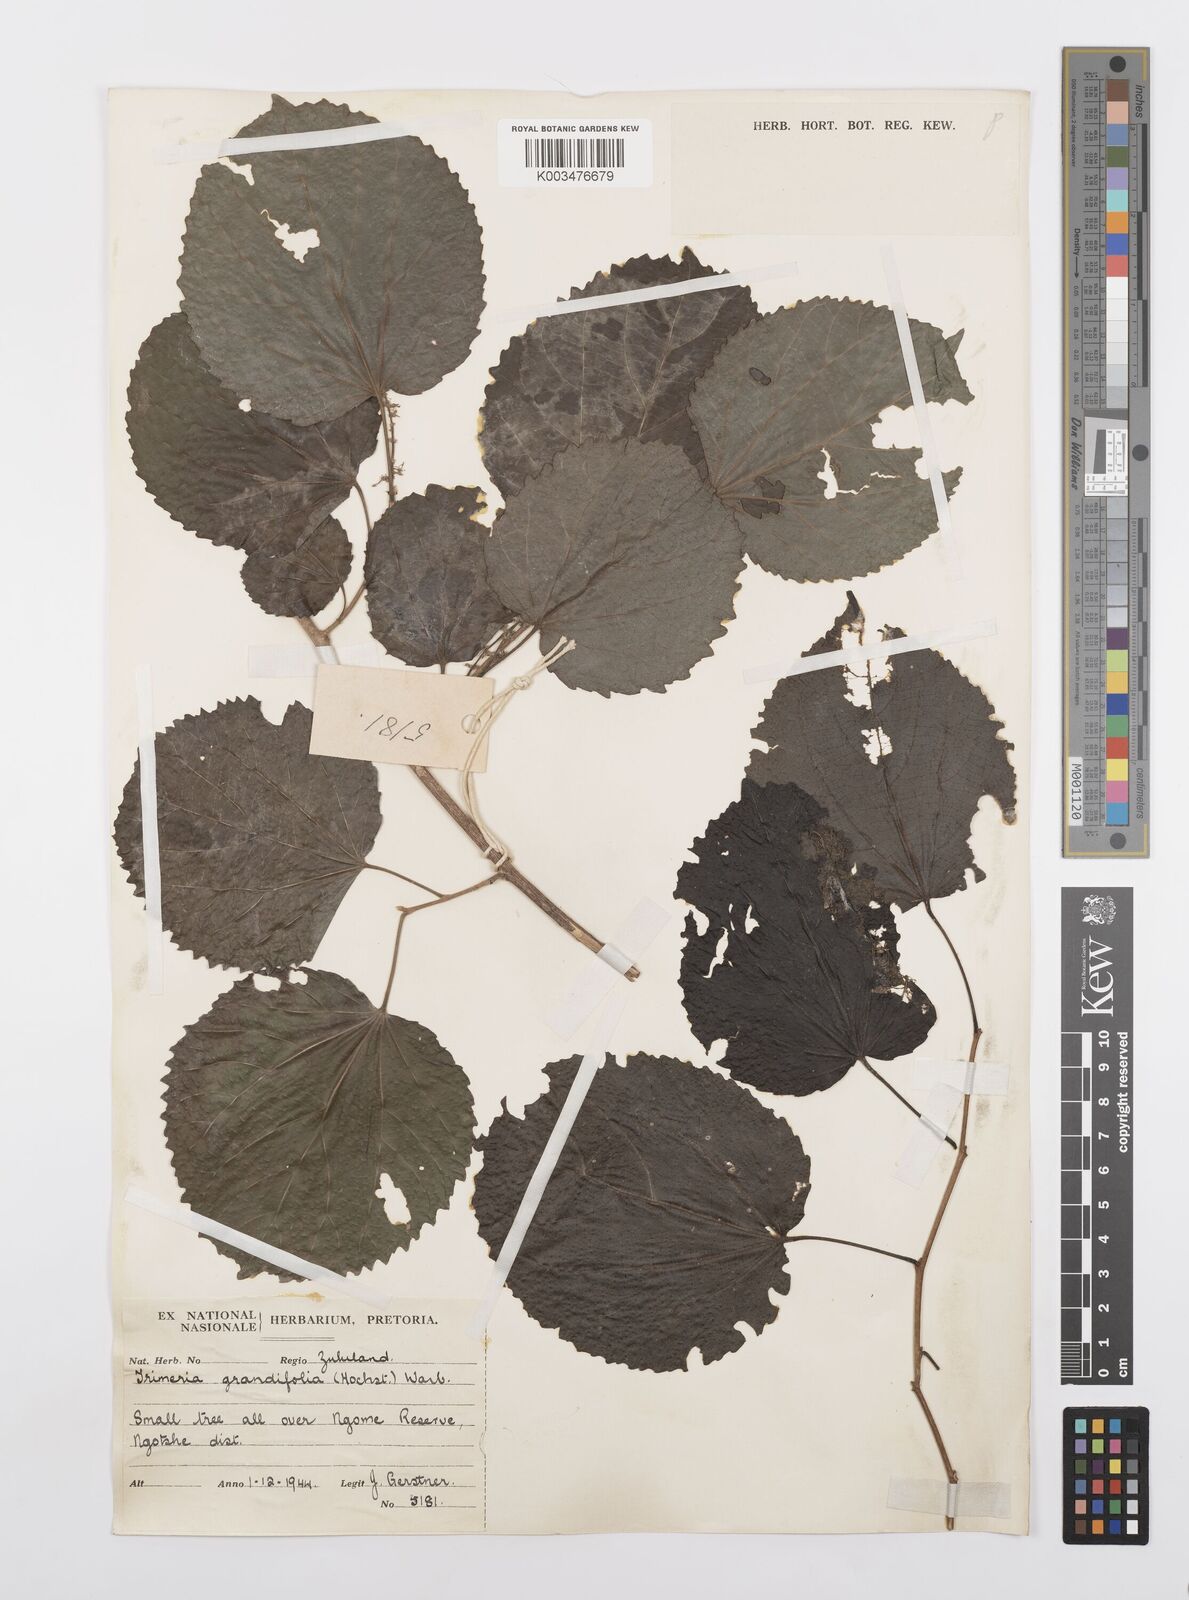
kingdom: Plantae
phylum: Tracheophyta
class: Magnoliopsida
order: Malpighiales
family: Salicaceae
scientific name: Salicaceae
